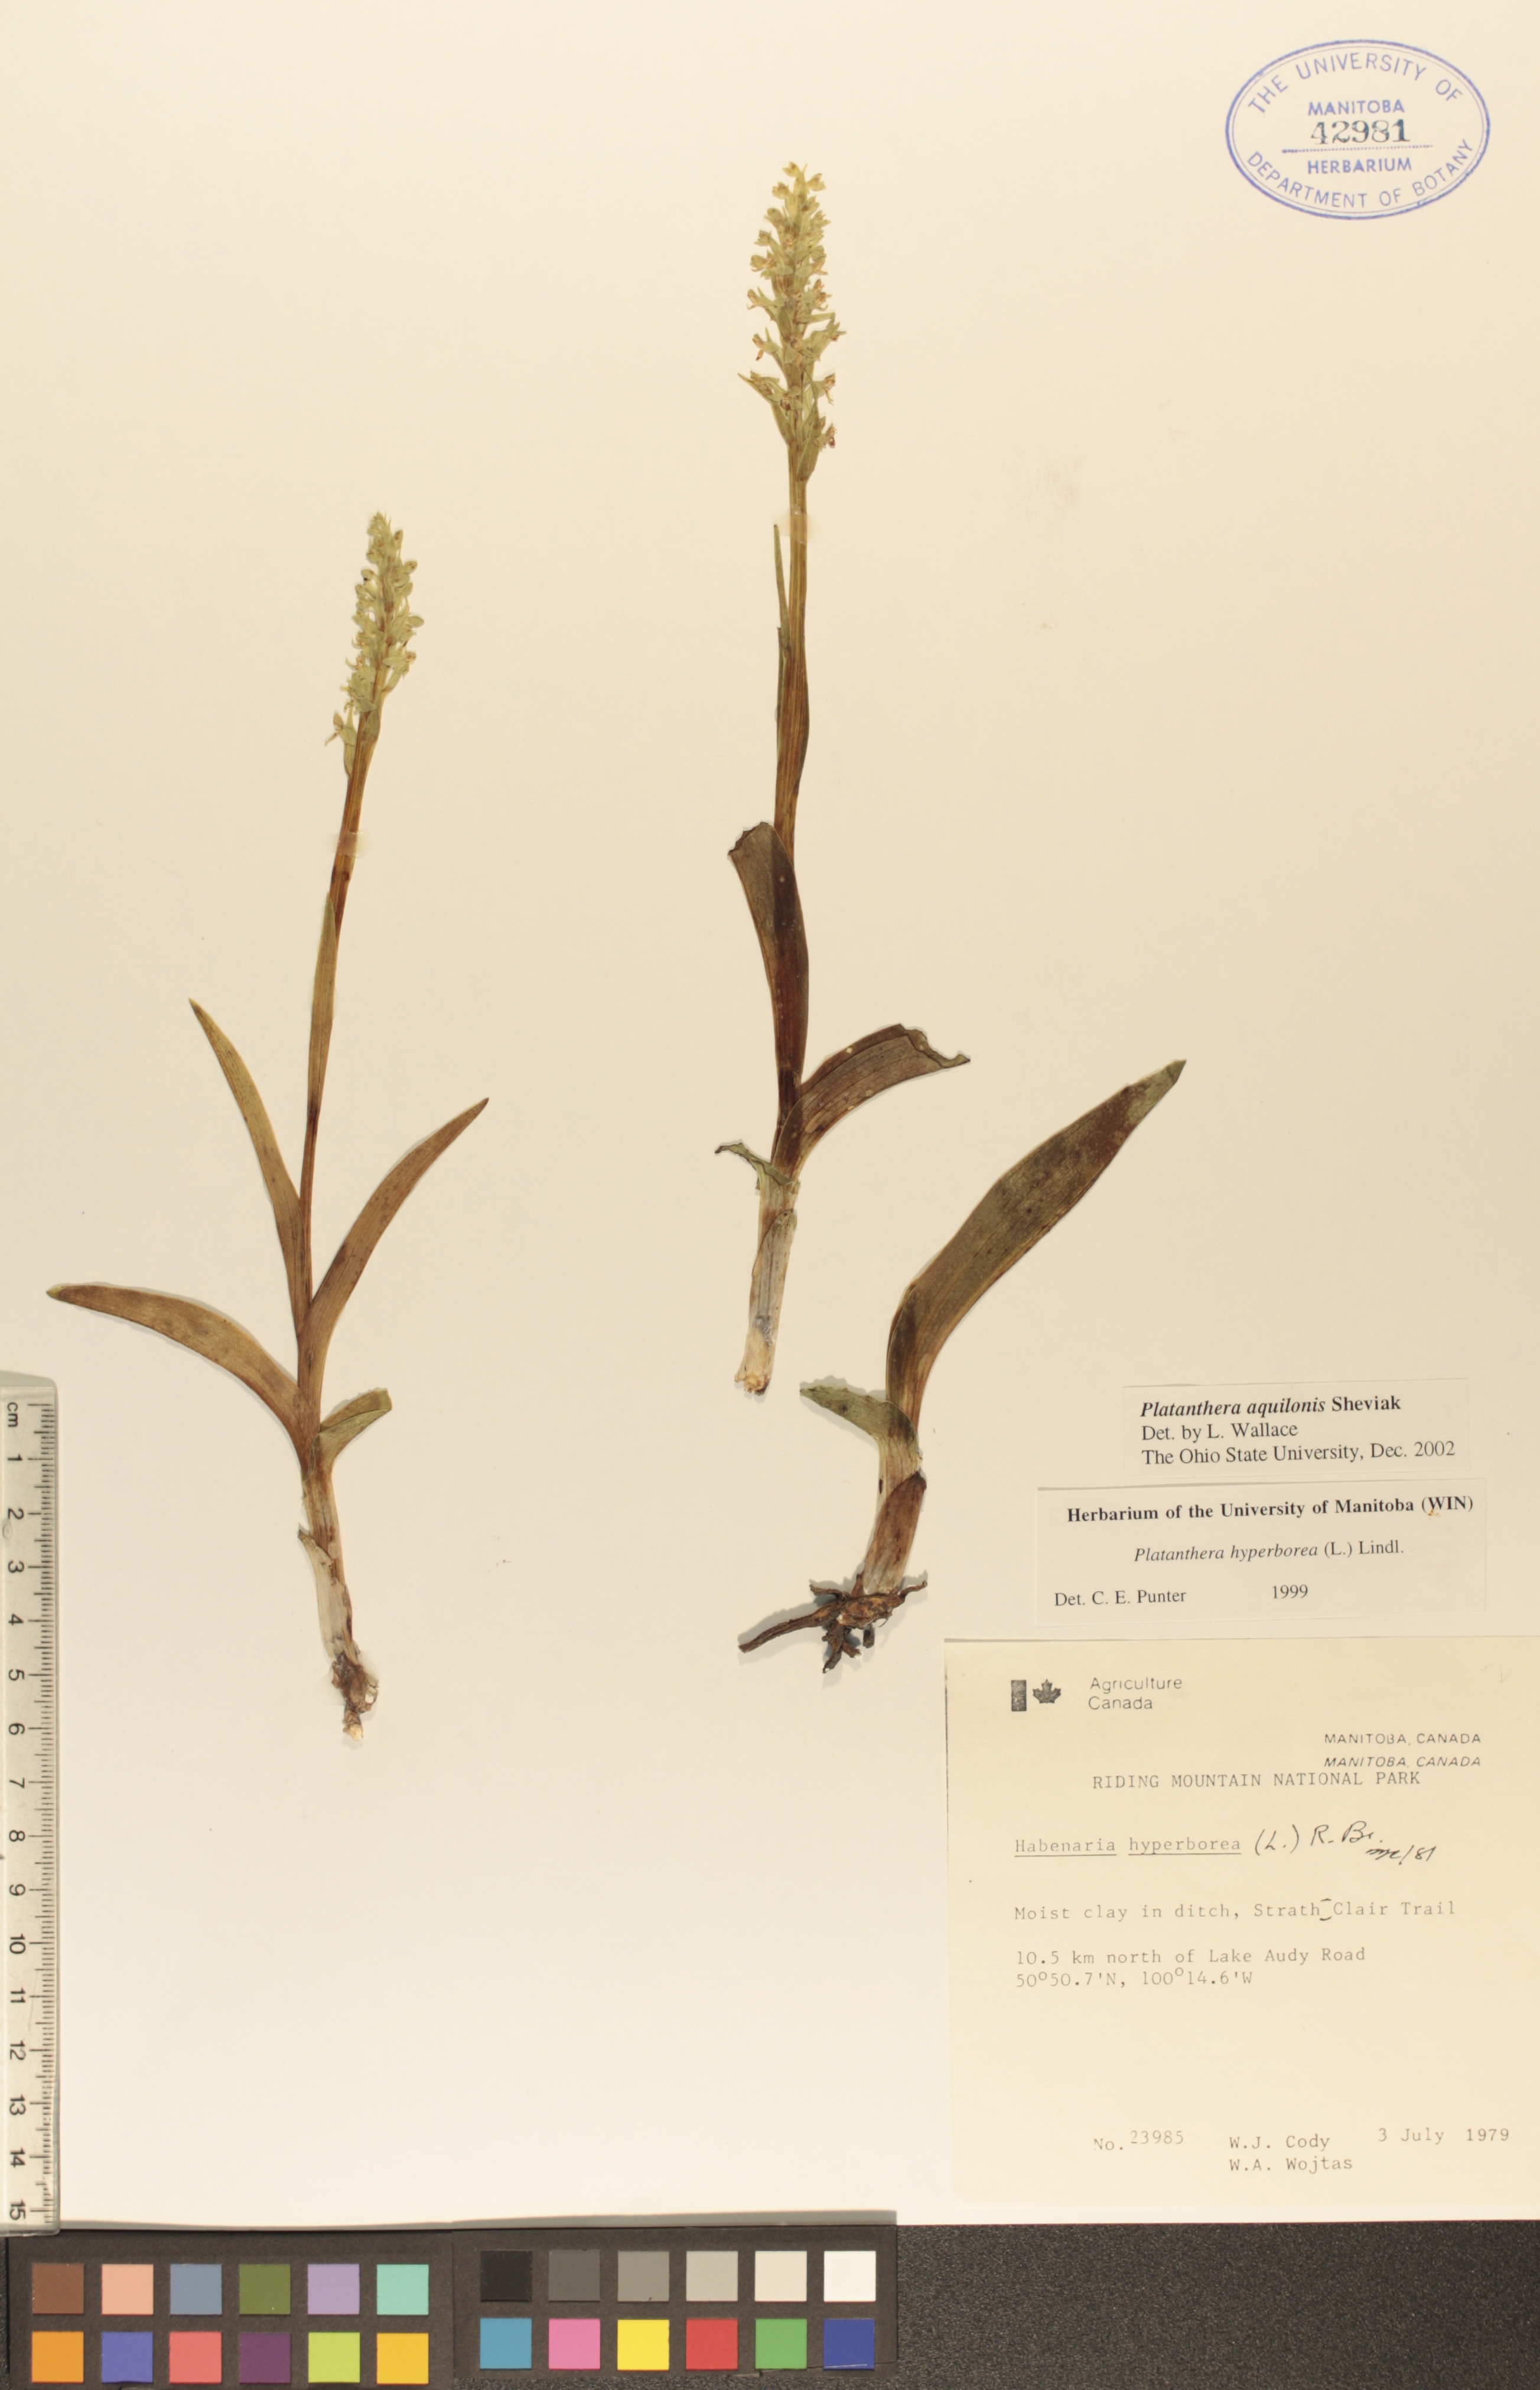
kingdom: Plantae
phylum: Tracheophyta
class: Liliopsida
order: Asparagales
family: Orchidaceae
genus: Platanthera
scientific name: Platanthera aquilonis
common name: Northern green orchid
